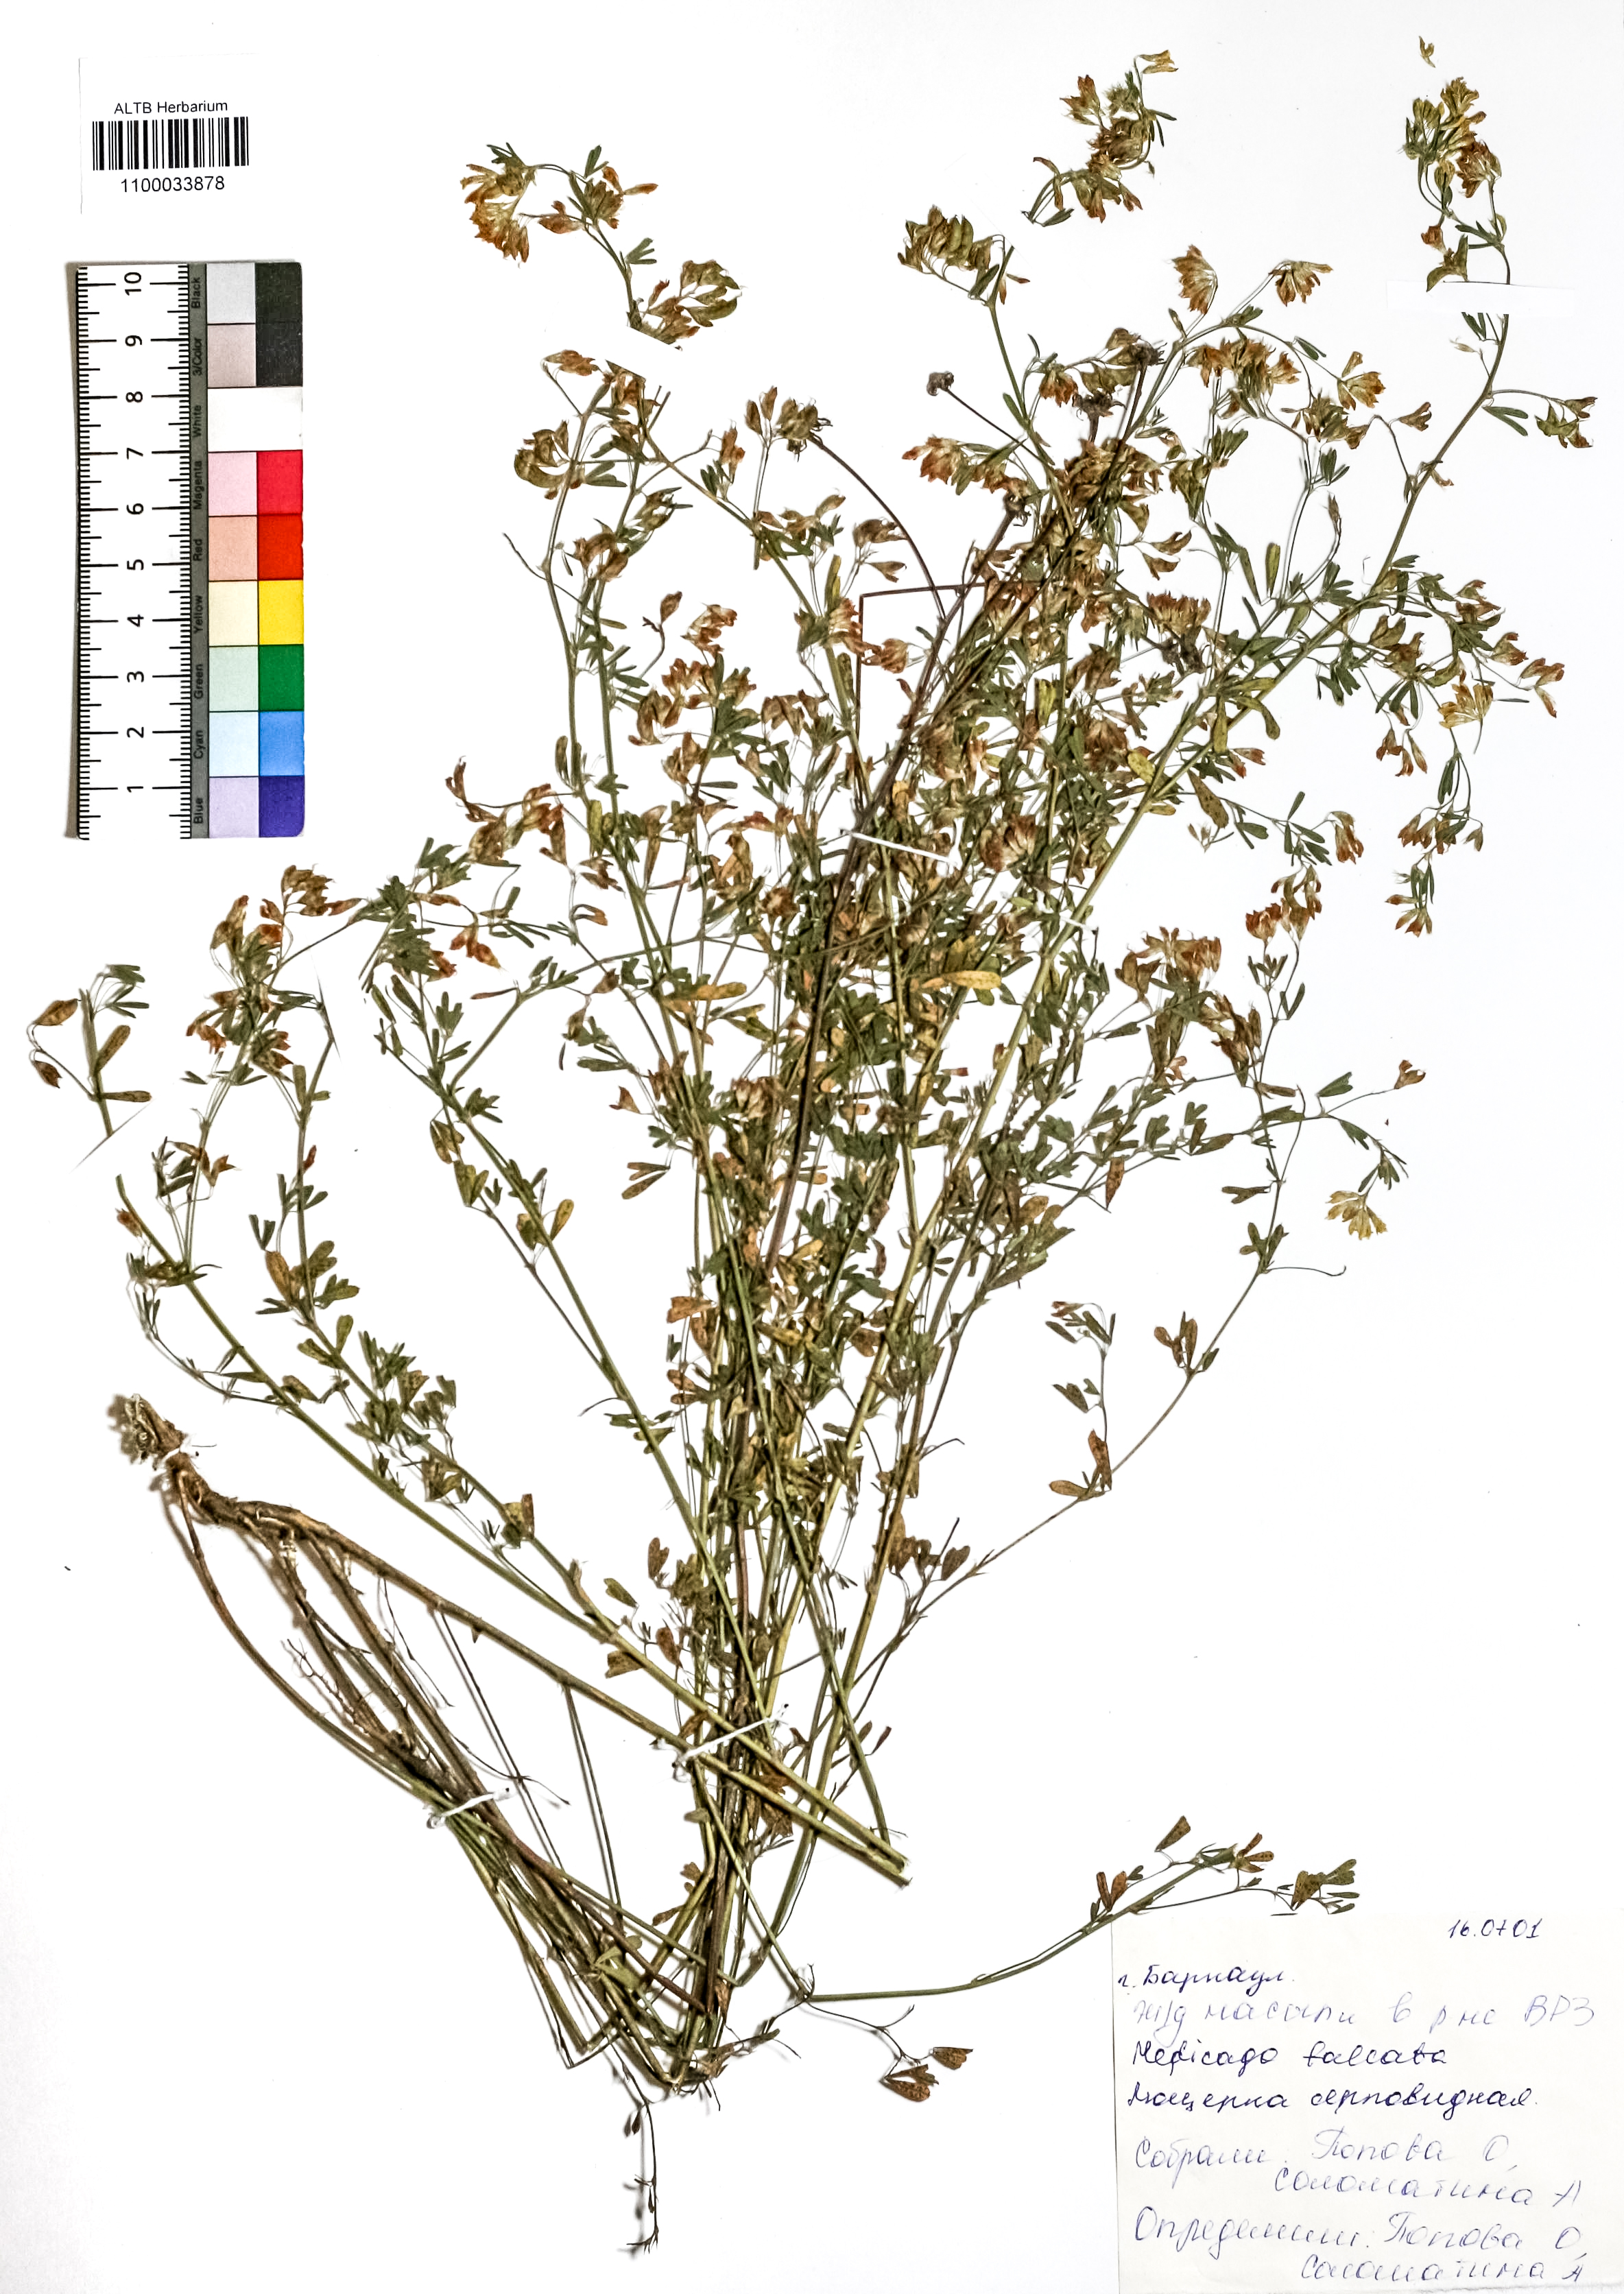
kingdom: Plantae
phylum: Tracheophyta
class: Magnoliopsida
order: Fabales
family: Fabaceae
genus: Medicago
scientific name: Medicago falcata
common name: Sickle medick
